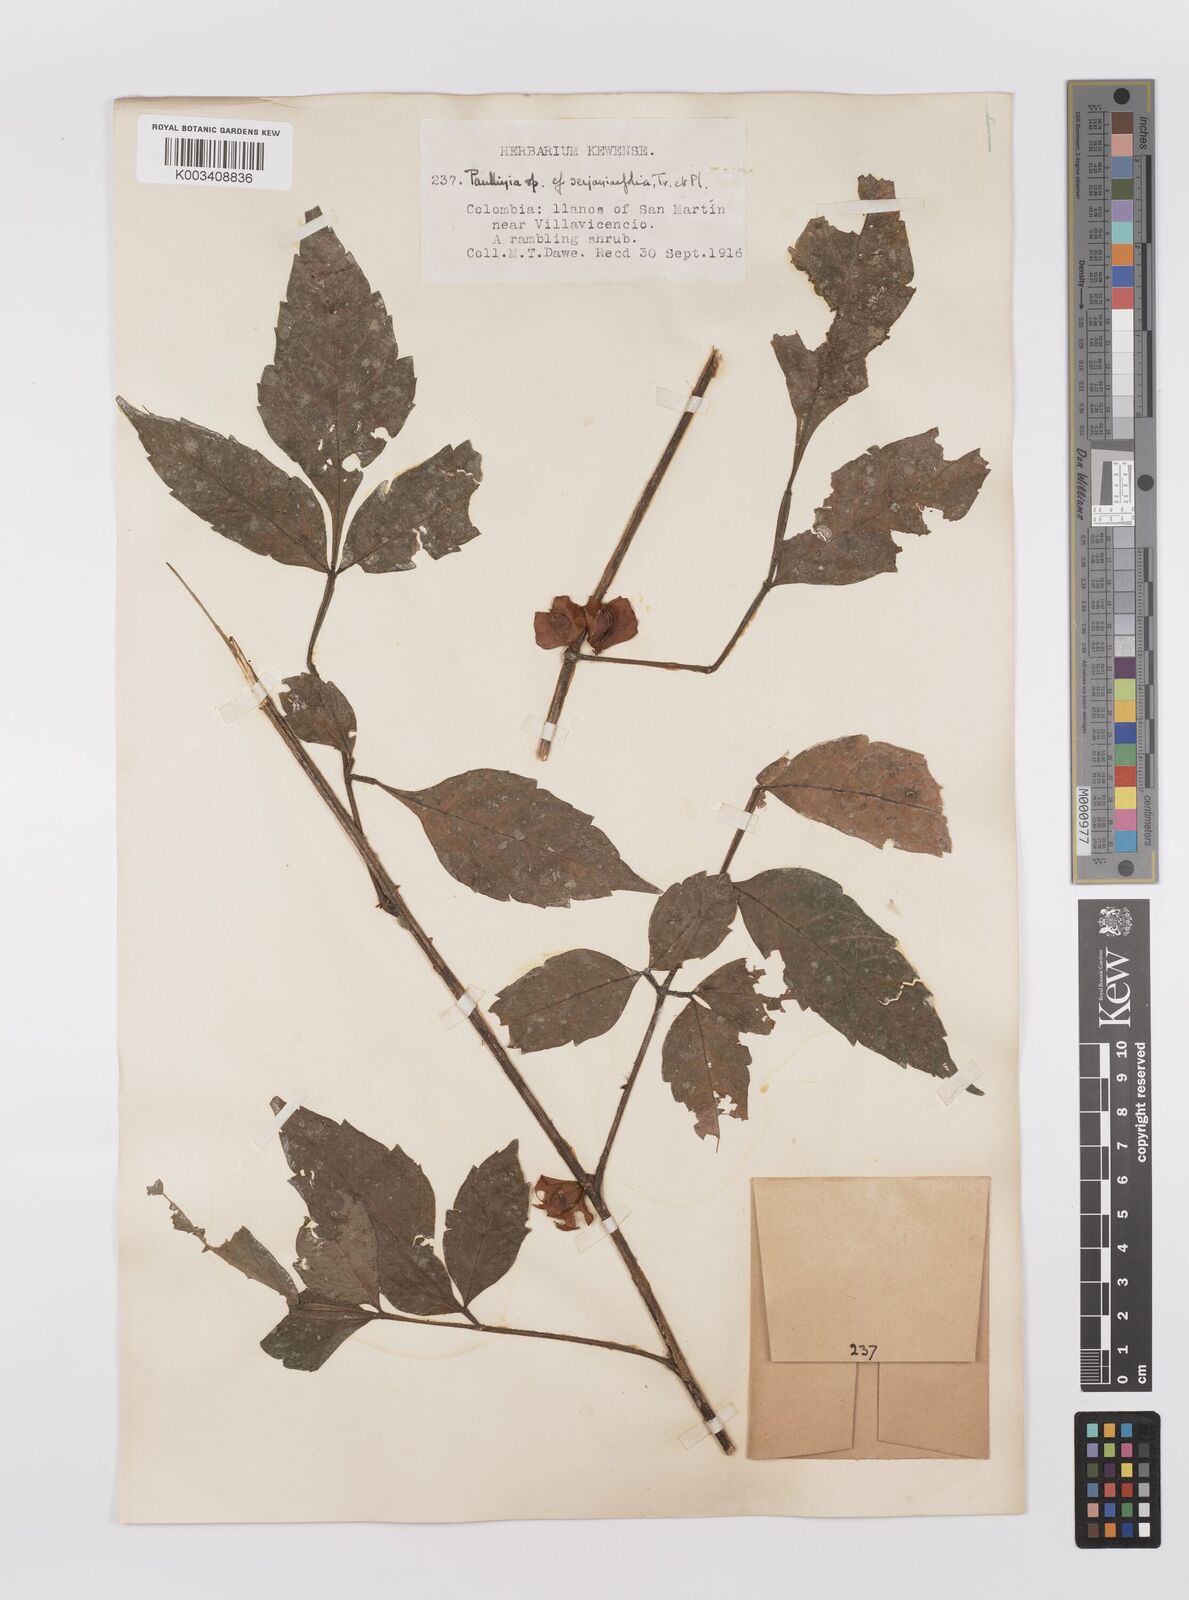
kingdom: Plantae
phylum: Tracheophyta
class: Magnoliopsida
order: Sapindales
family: Sapindaceae
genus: Paullinia
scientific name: Paullinia serjaniifolia
